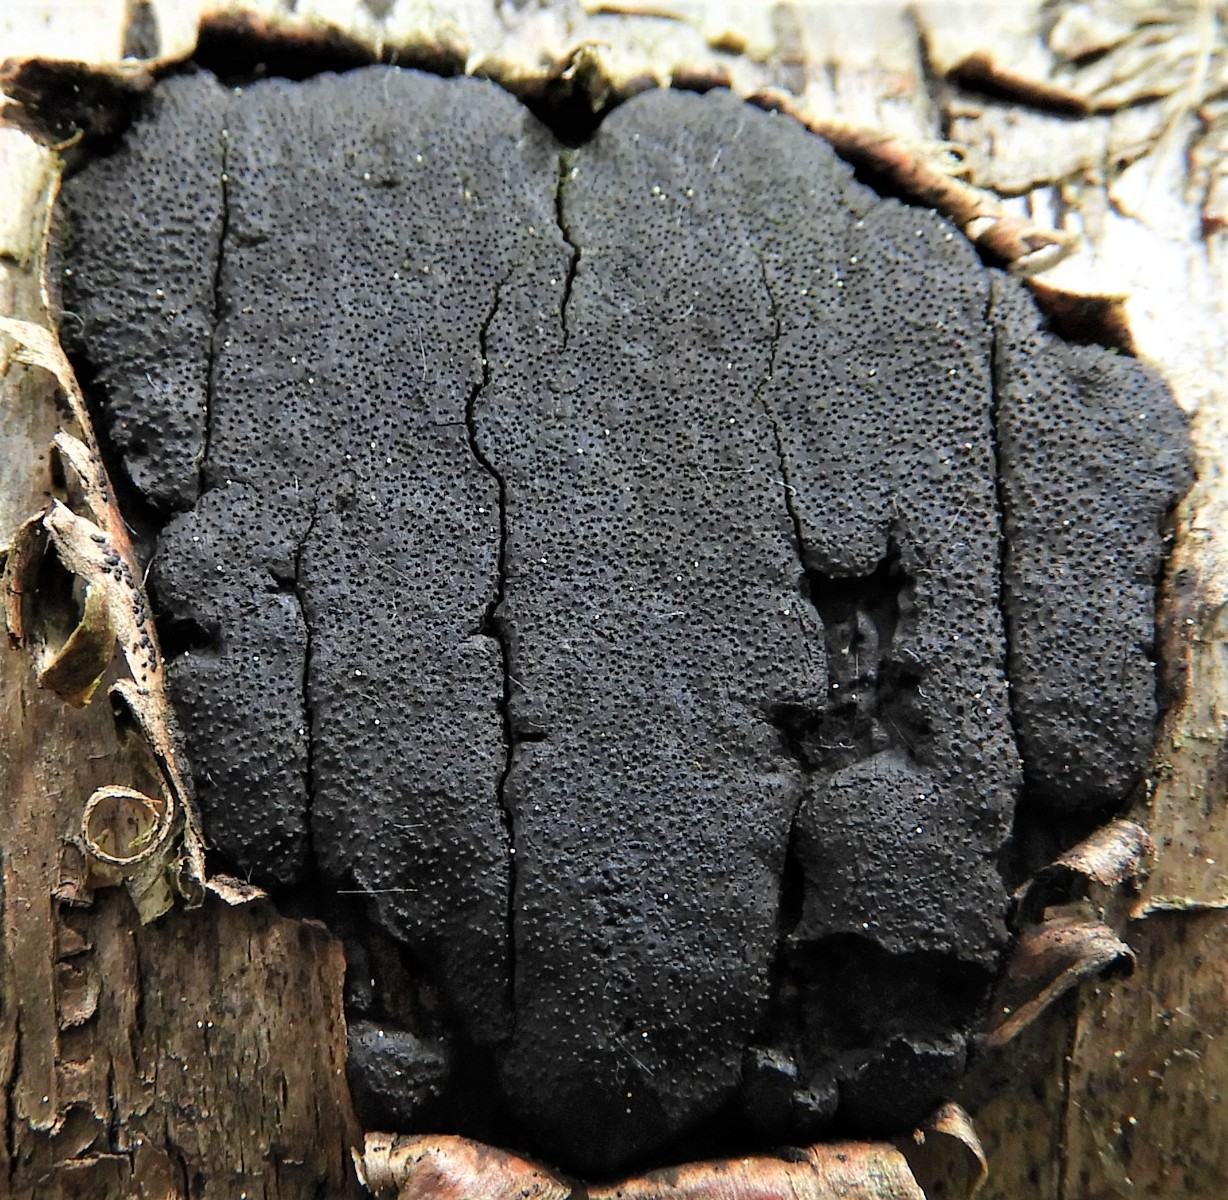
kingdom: Fungi
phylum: Ascomycota
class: Sordariomycetes
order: Xylariales
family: Diatrypaceae
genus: Eutypa
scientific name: Eutypa
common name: kulskorpe
